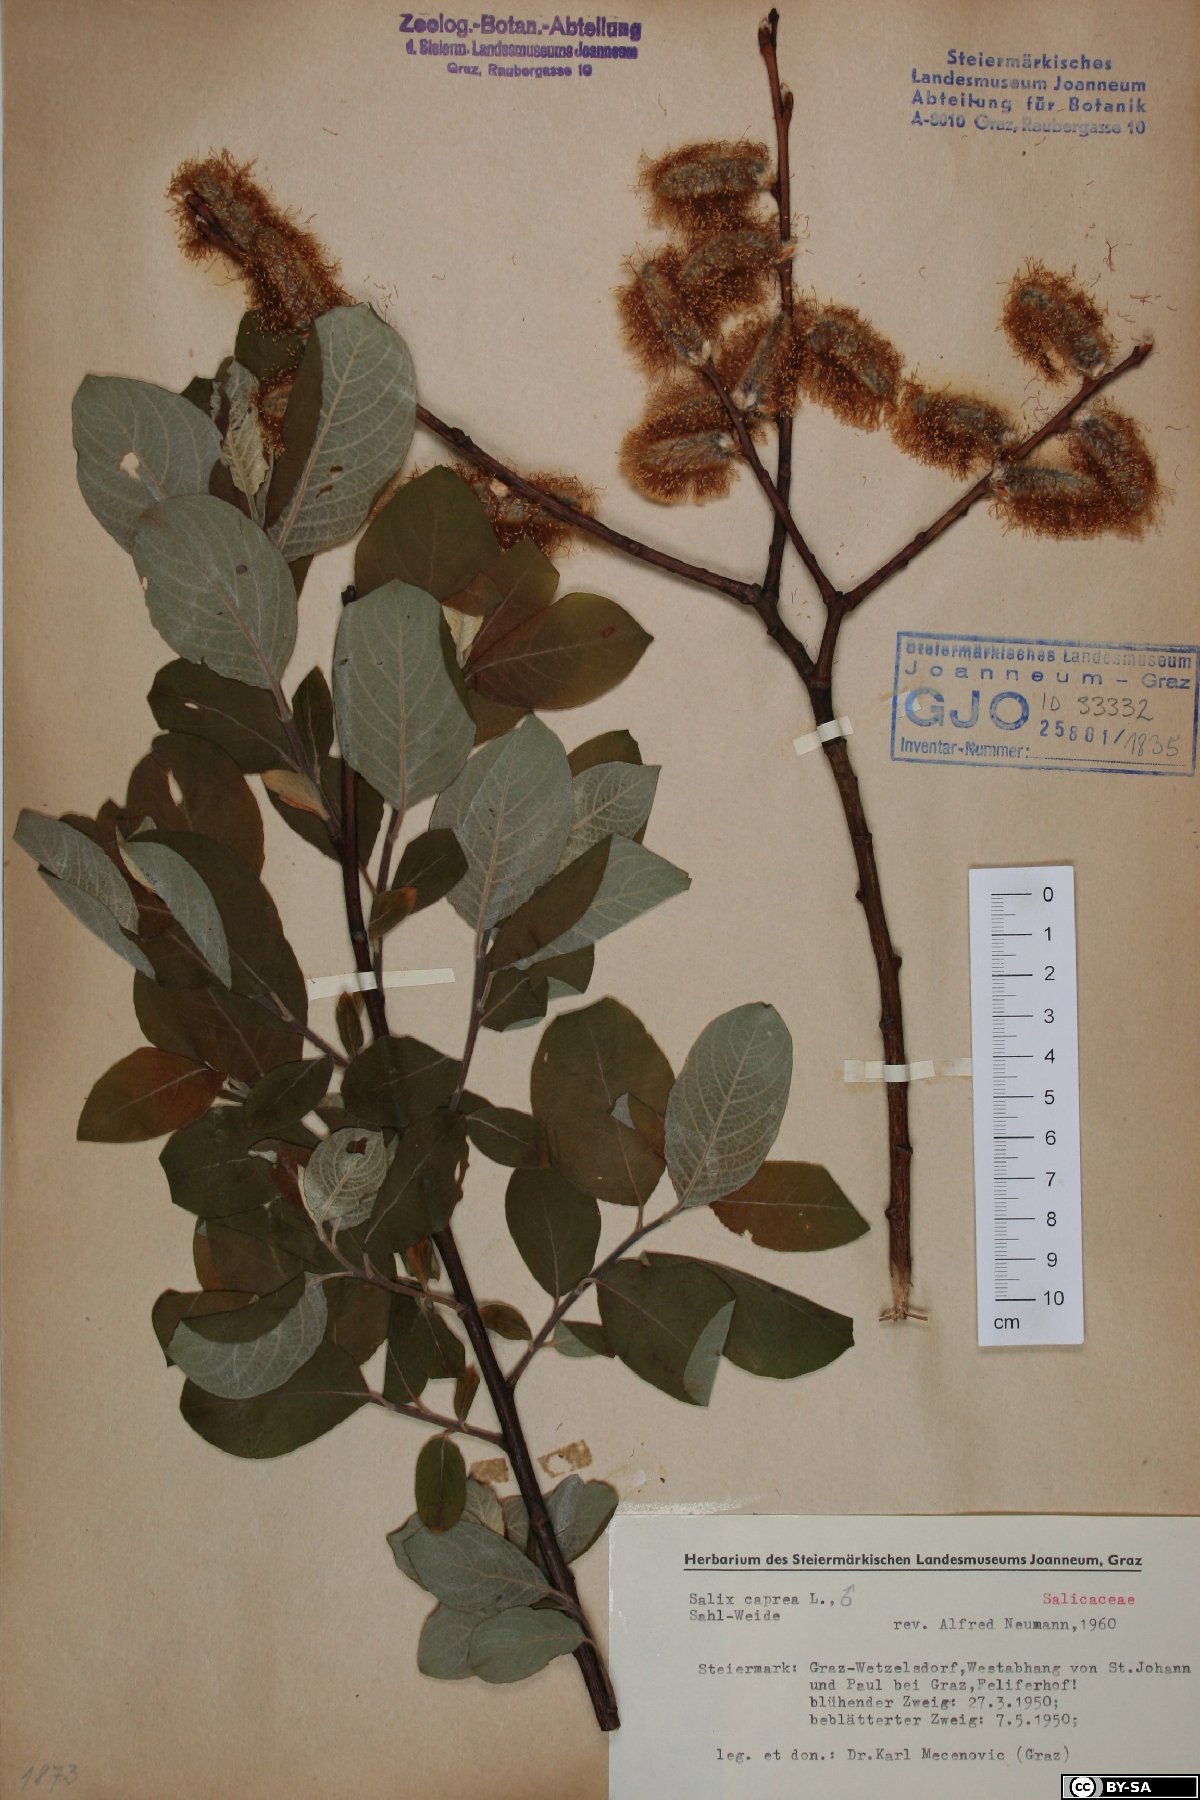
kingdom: Plantae
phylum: Tracheophyta
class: Magnoliopsida
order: Malpighiales
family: Salicaceae
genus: Salix
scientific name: Salix caprea
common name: Goat willow
